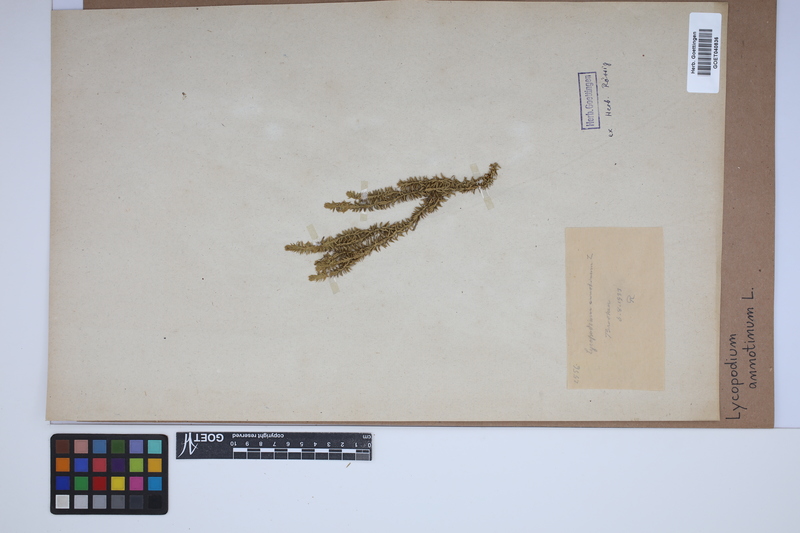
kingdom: Plantae
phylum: Tracheophyta
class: Lycopodiopsida
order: Lycopodiales
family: Lycopodiaceae
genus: Spinulum
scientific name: Spinulum annotinum
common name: Interrupted club-moss
